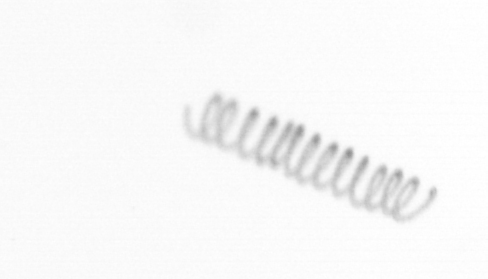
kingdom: Chromista
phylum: Ochrophyta
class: Bacillariophyceae
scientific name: Bacillariophyceae
